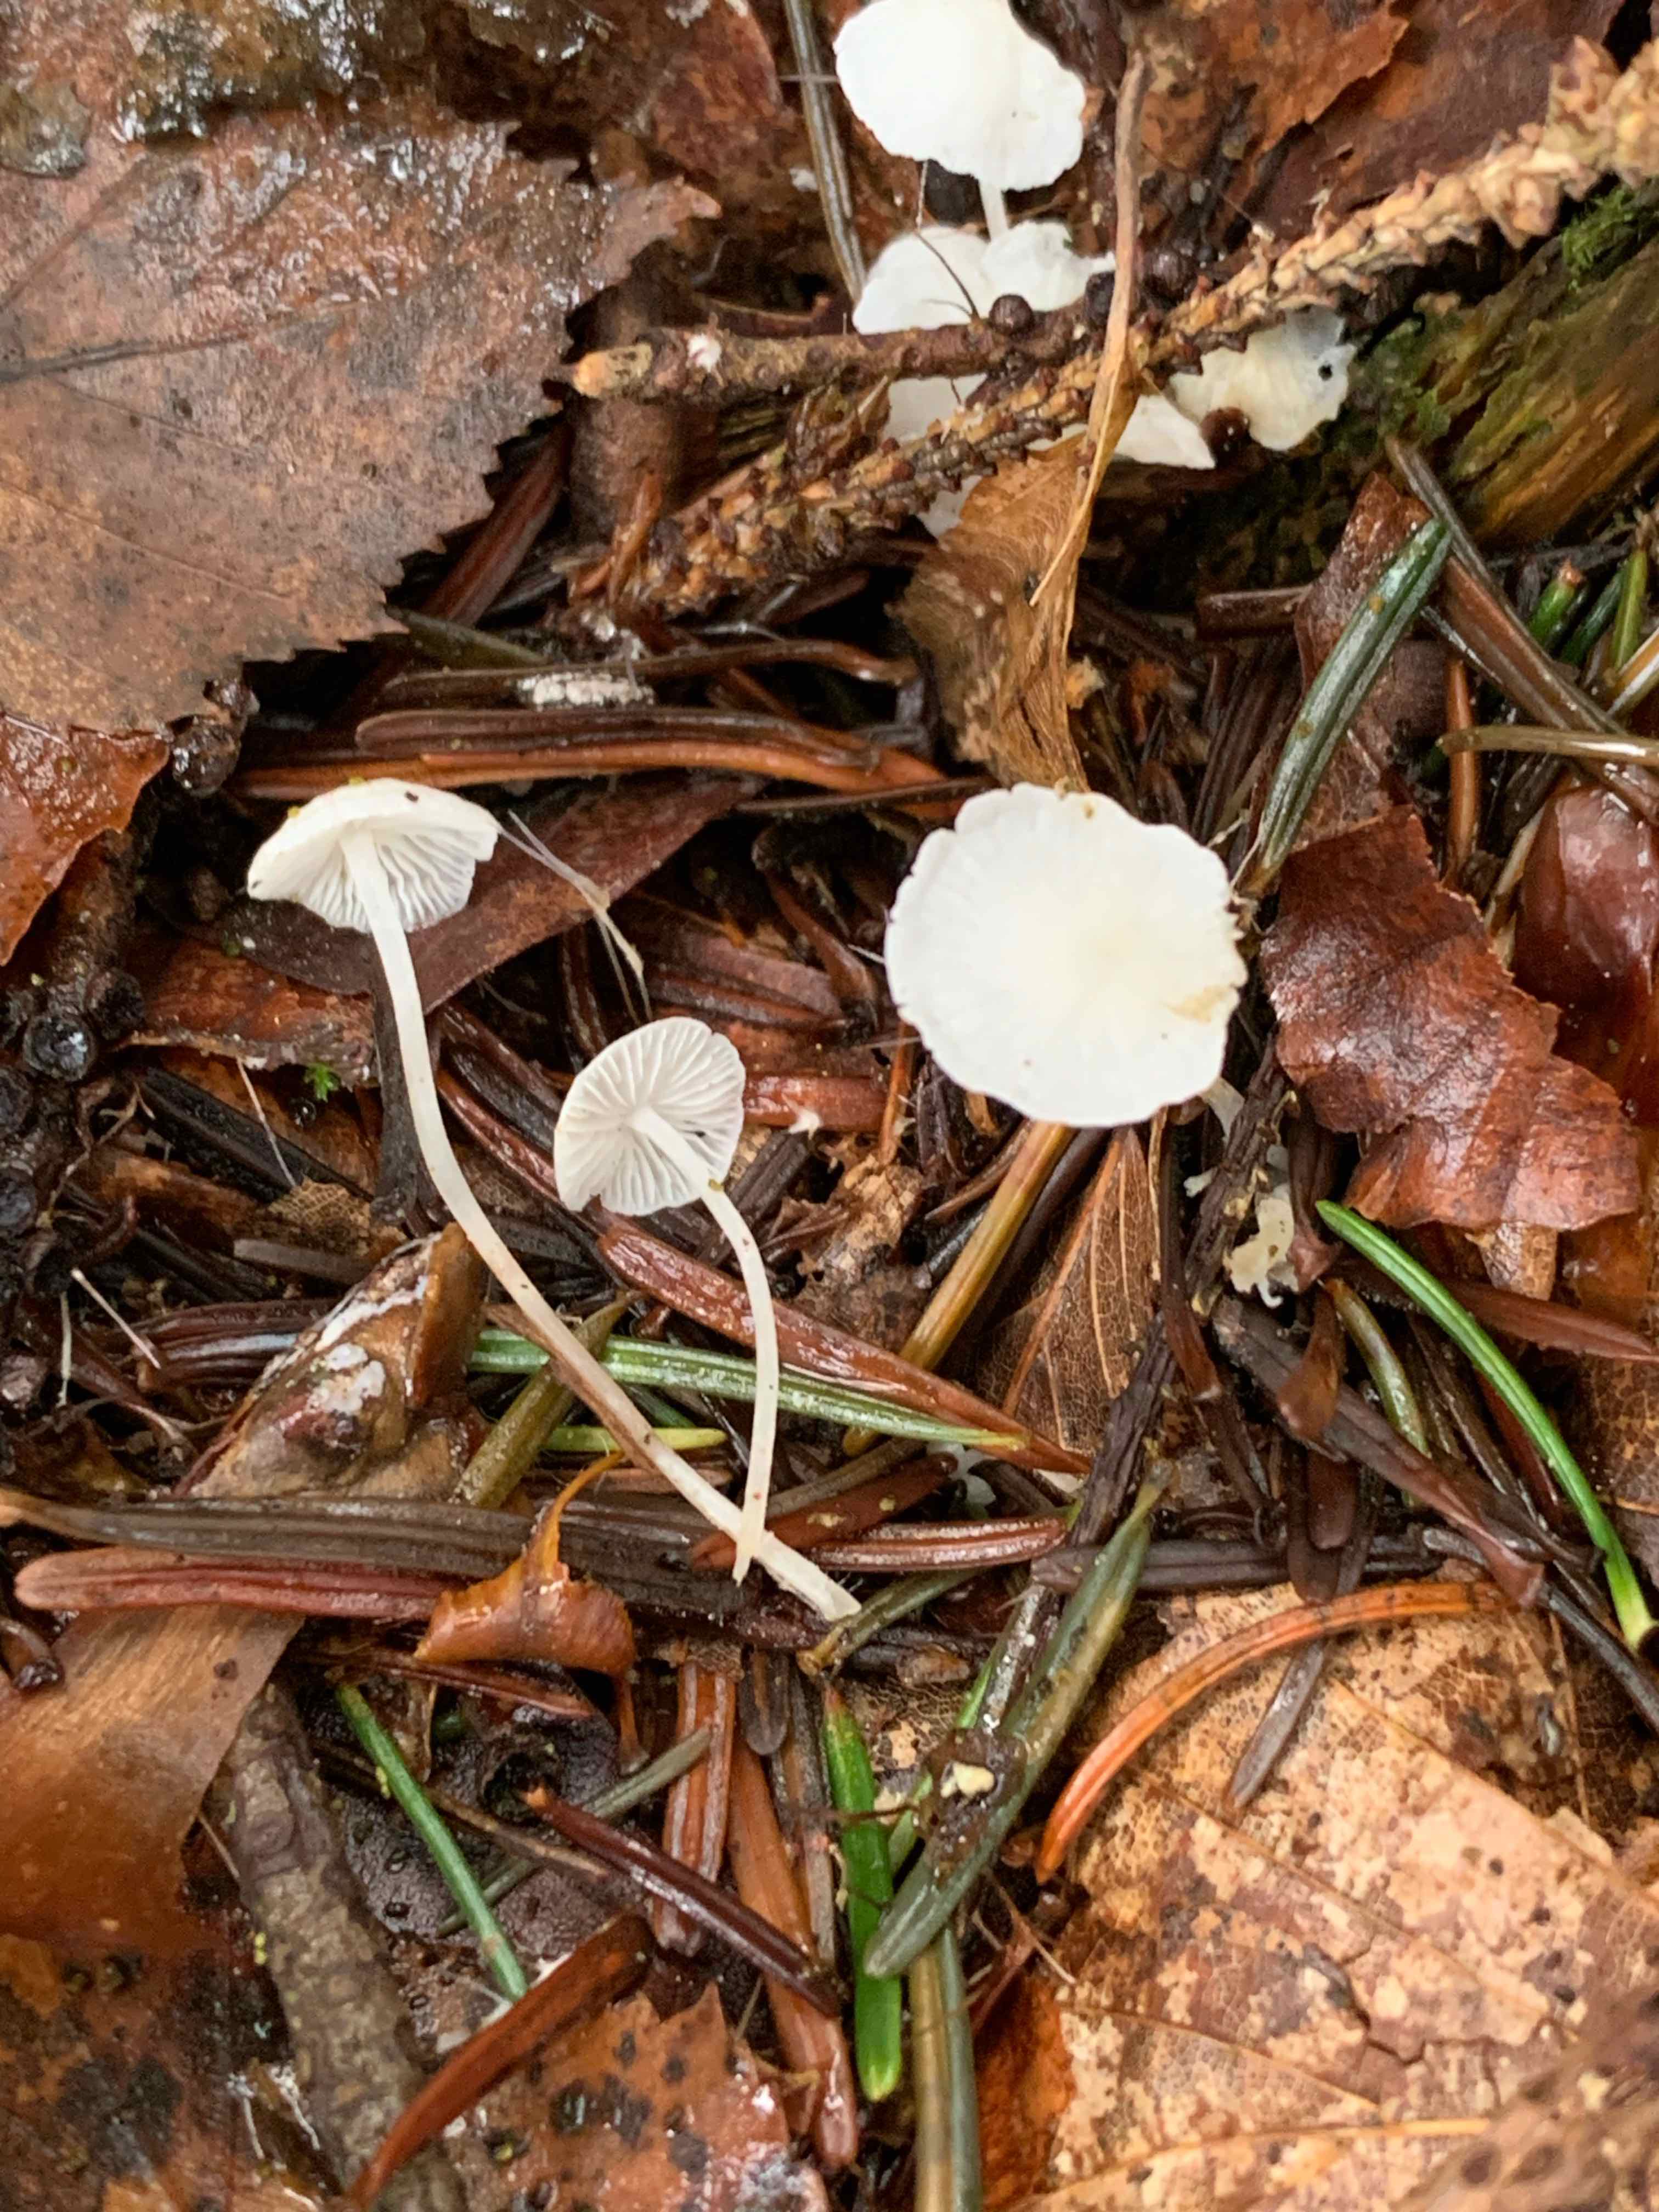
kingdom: Fungi
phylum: Basidiomycota
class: Agaricomycetes
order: Agaricales
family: Mycenaceae
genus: Hemimycena
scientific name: Hemimycena lactea
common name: mælkehvid huesvamp
